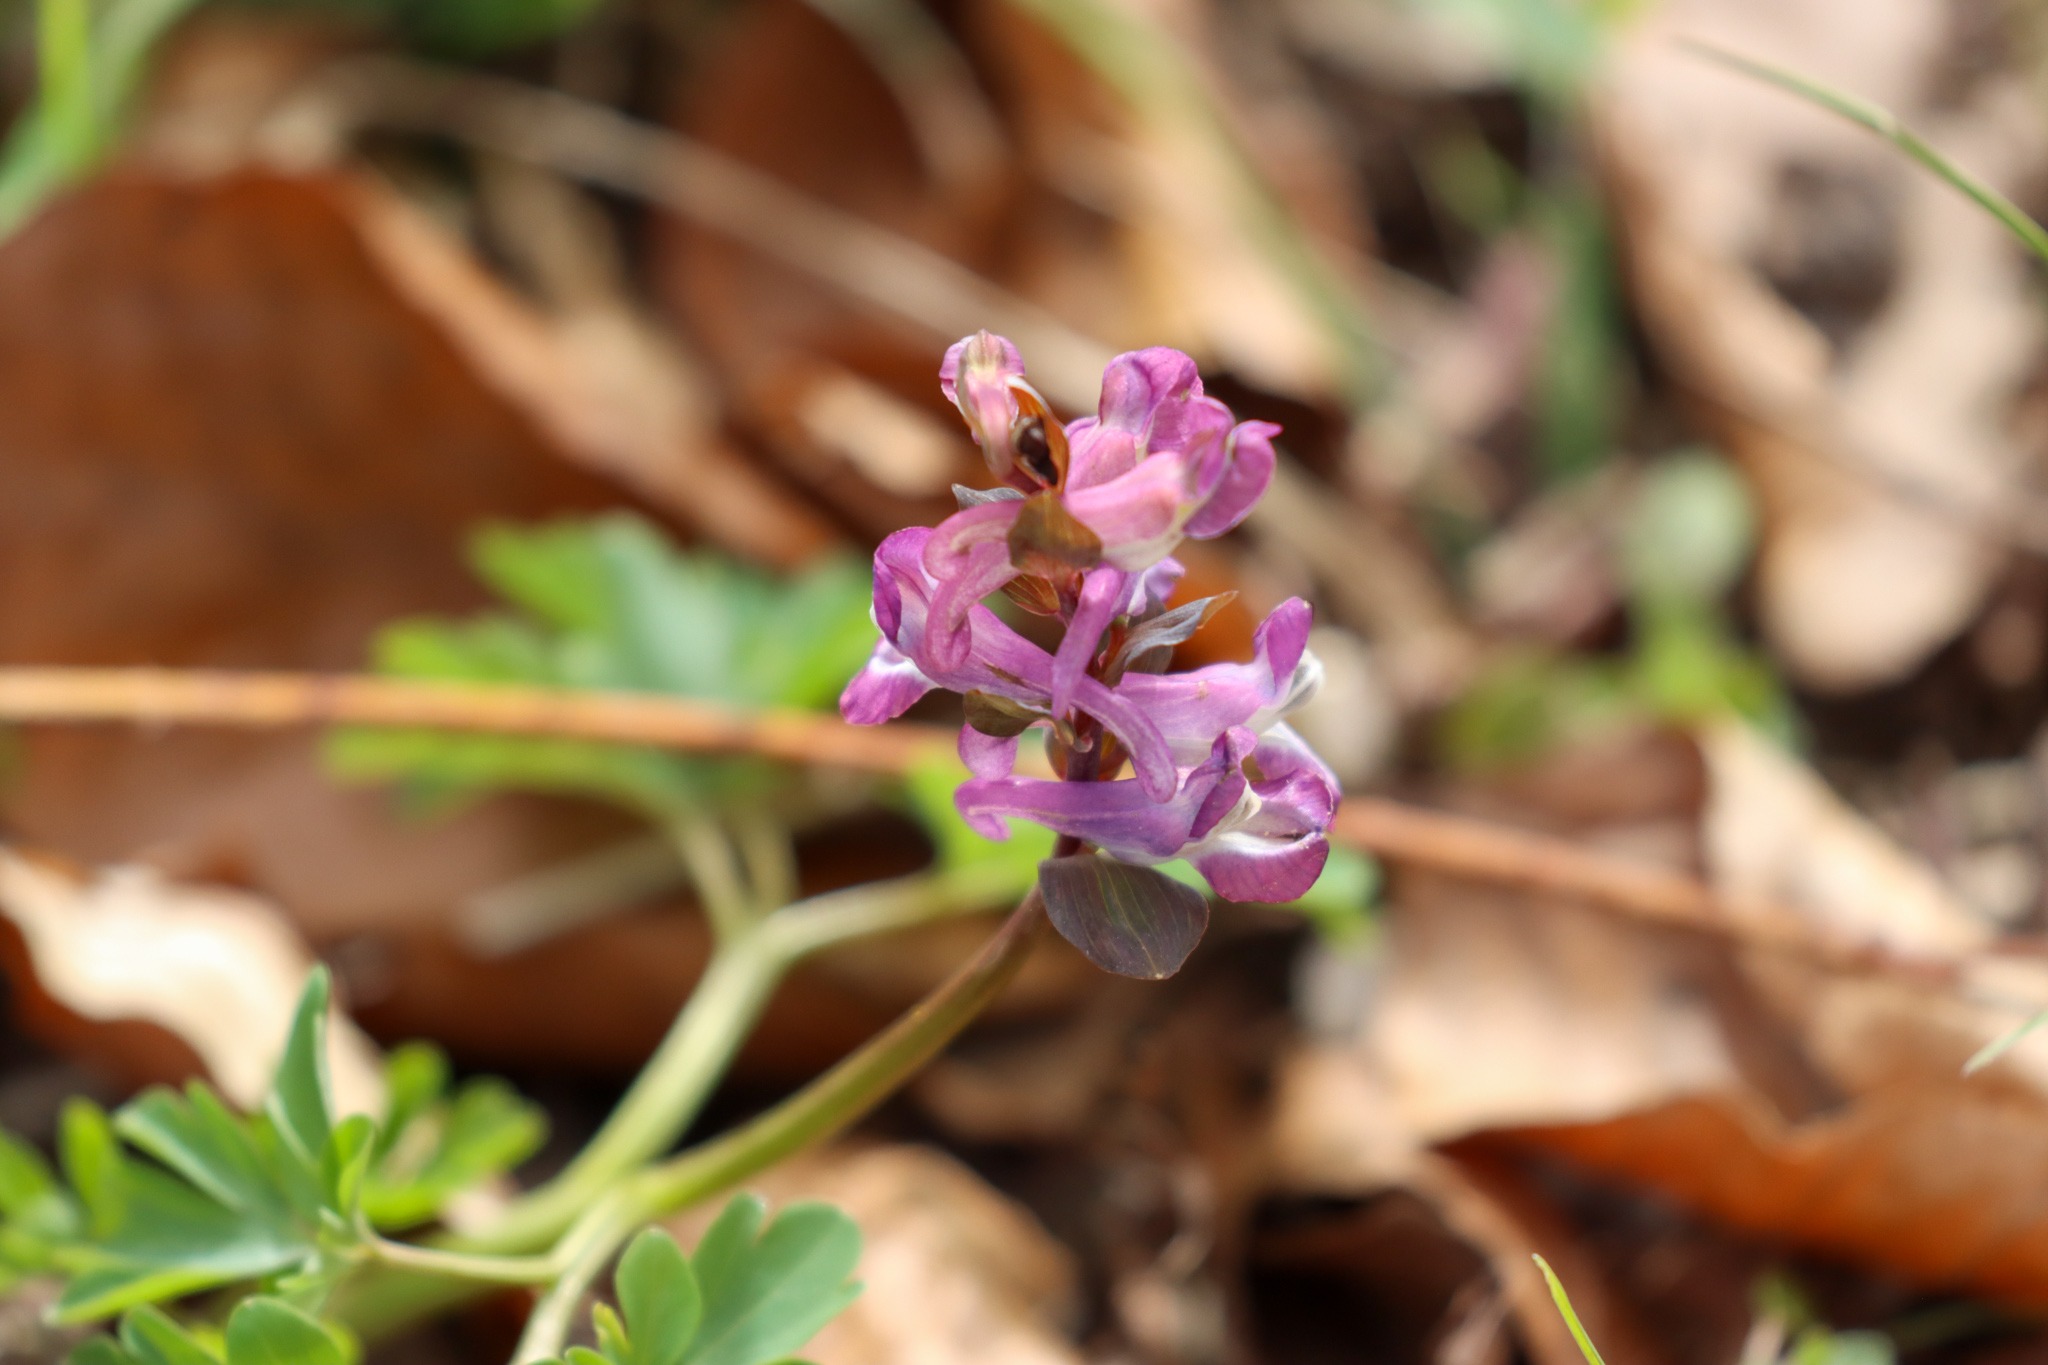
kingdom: Plantae
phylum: Tracheophyta
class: Magnoliopsida
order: Ranunculales
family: Papaveraceae
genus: Corydalis
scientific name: Corydalis cava
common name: Hulrodet lærkespore
